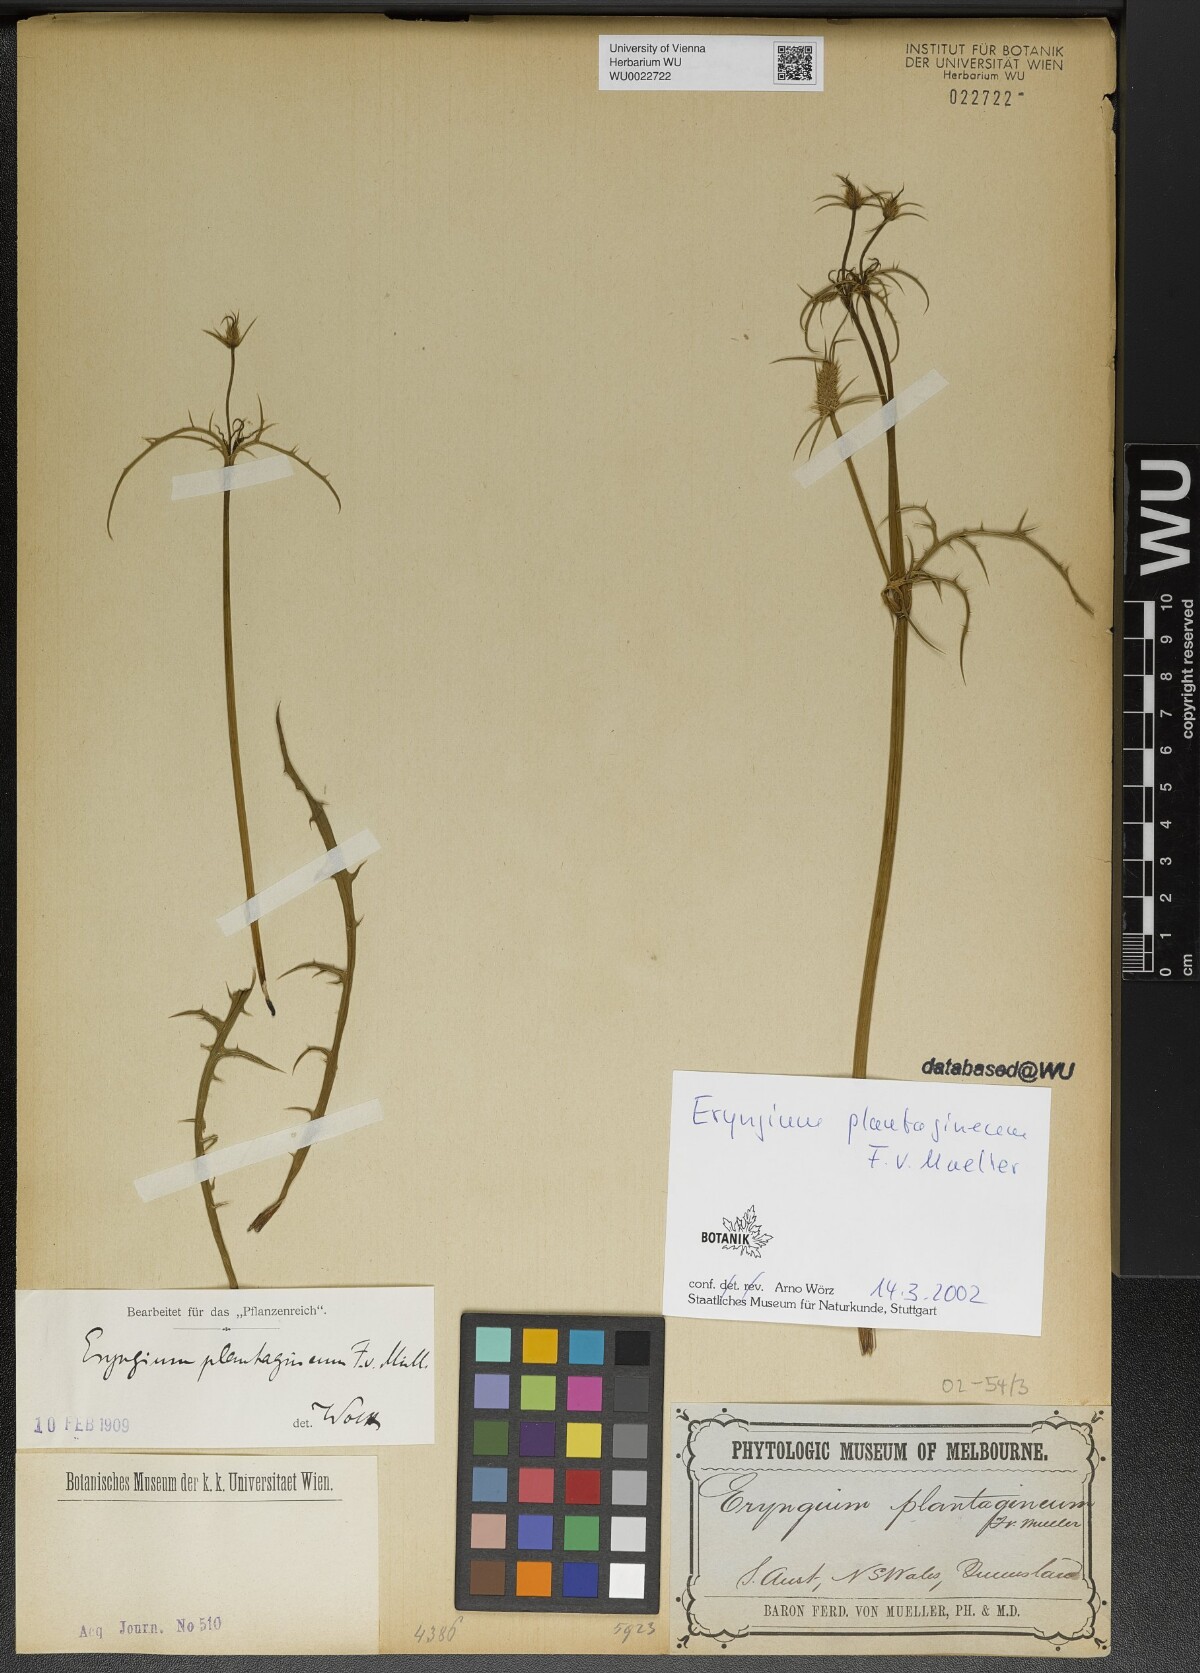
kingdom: Plantae
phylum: Tracheophyta
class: Magnoliopsida
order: Apiales
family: Apiaceae
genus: Eryngium
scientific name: Eryngium plantagineum
